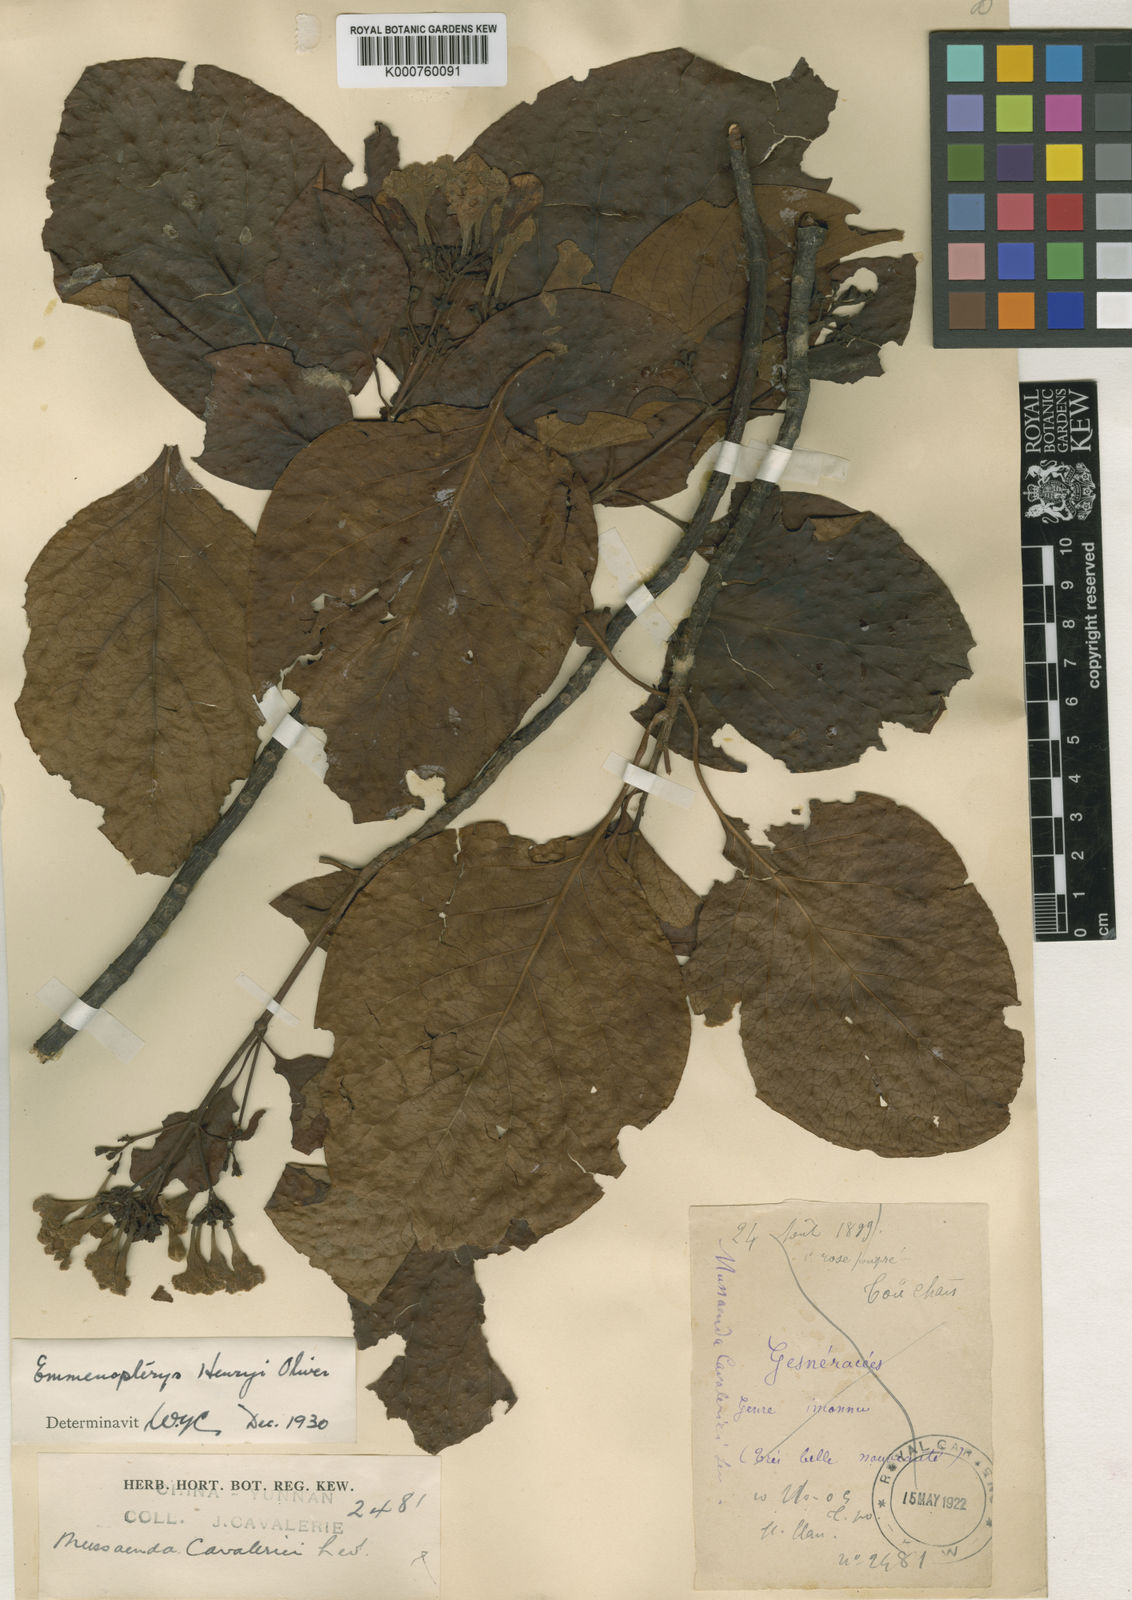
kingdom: Plantae
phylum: Tracheophyta
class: Magnoliopsida
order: Gentianales
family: Rubiaceae
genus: Emmenopterys
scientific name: Emmenopterys henryi
